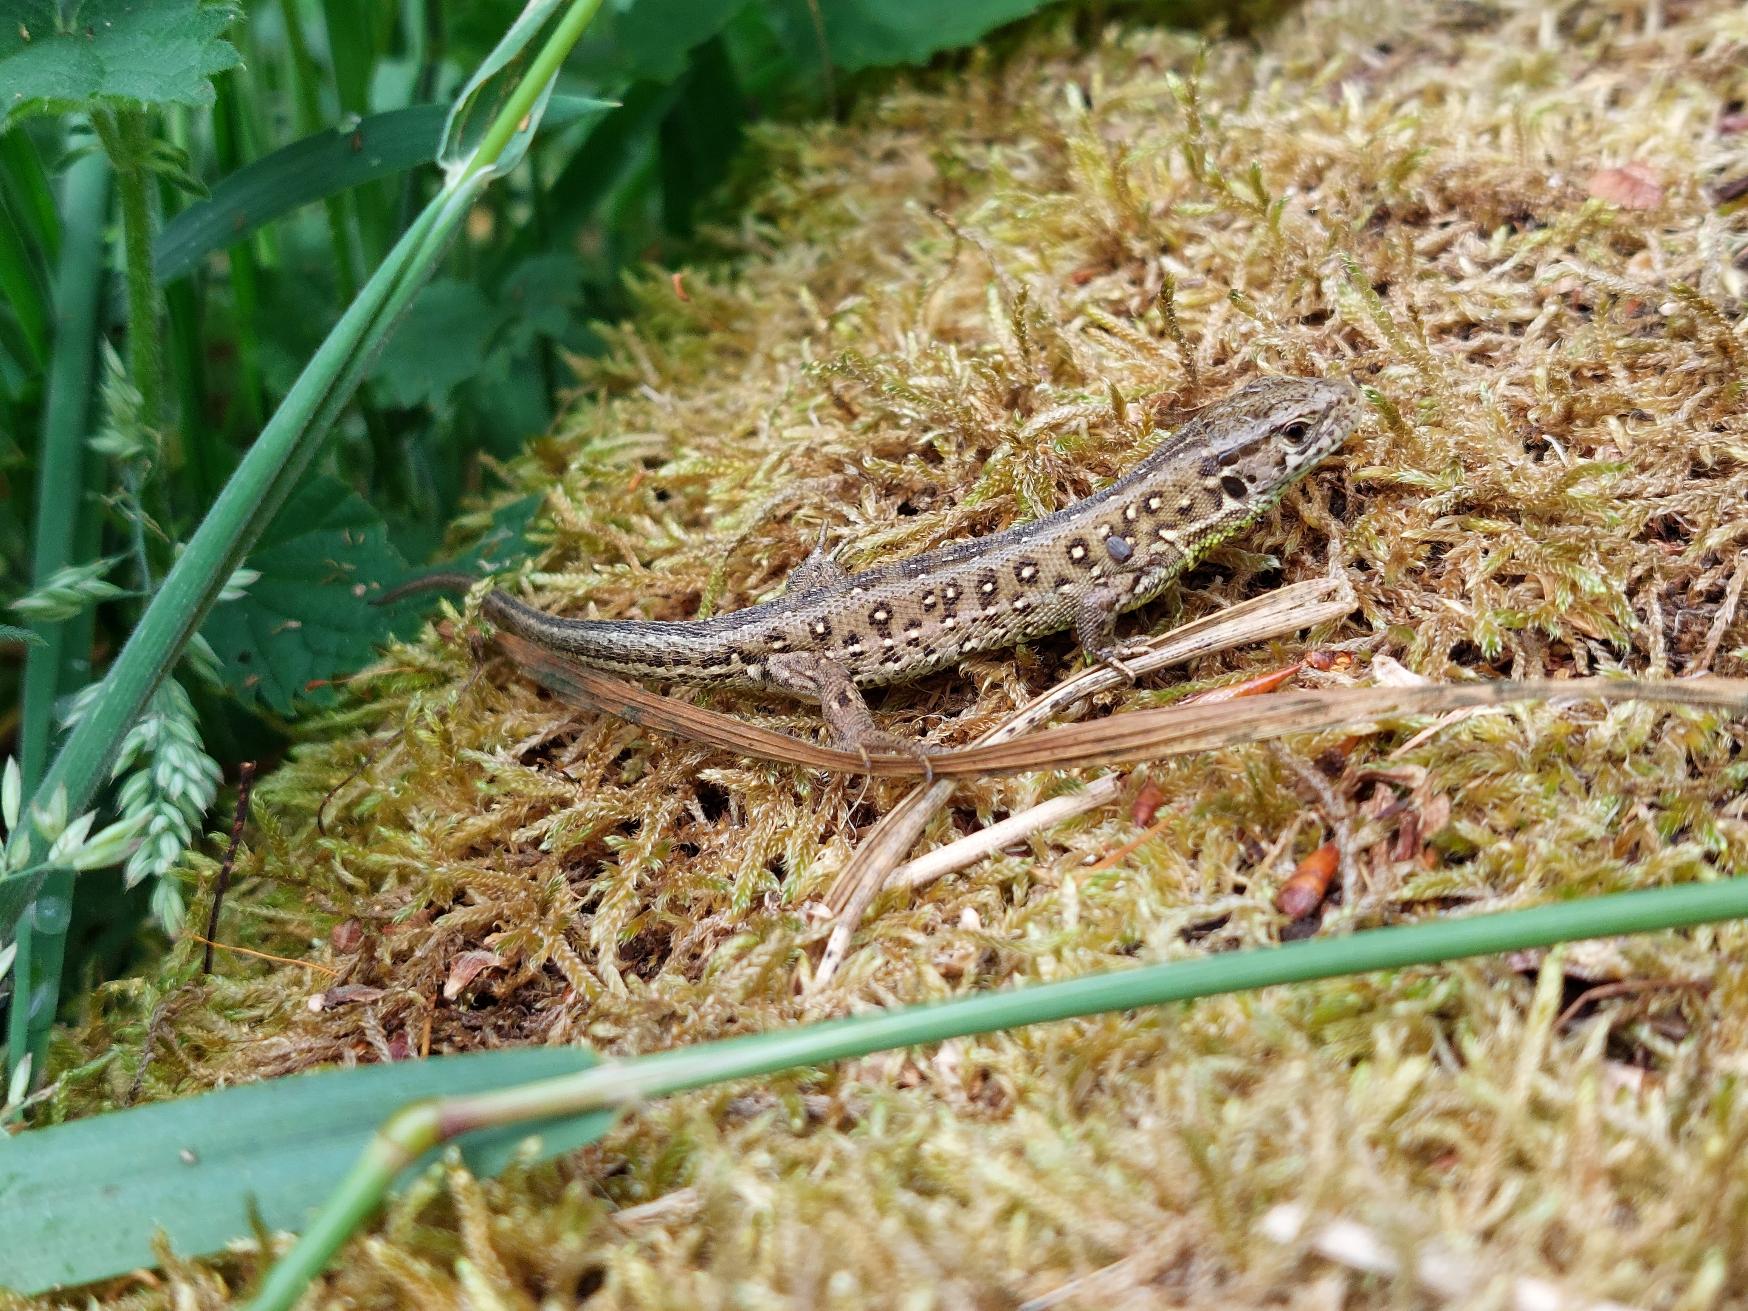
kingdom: Animalia
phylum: Chordata
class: Squamata
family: Lacertidae
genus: Lacerta
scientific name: Lacerta agilis
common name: Markfirben
